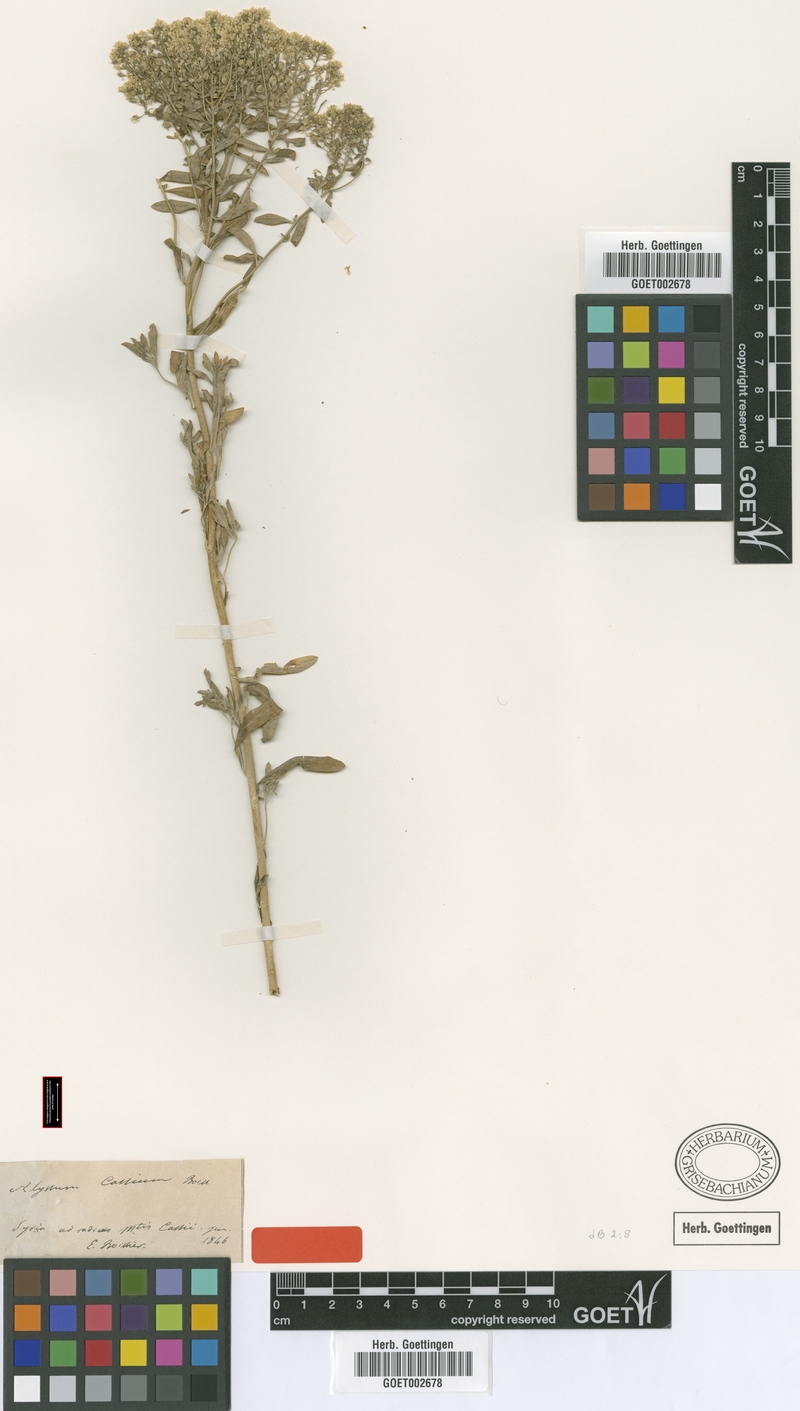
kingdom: Plantae
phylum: Tracheophyta
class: Magnoliopsida
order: Brassicales
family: Brassicaceae
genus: Odontarrhena
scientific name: Odontarrhena cassia
